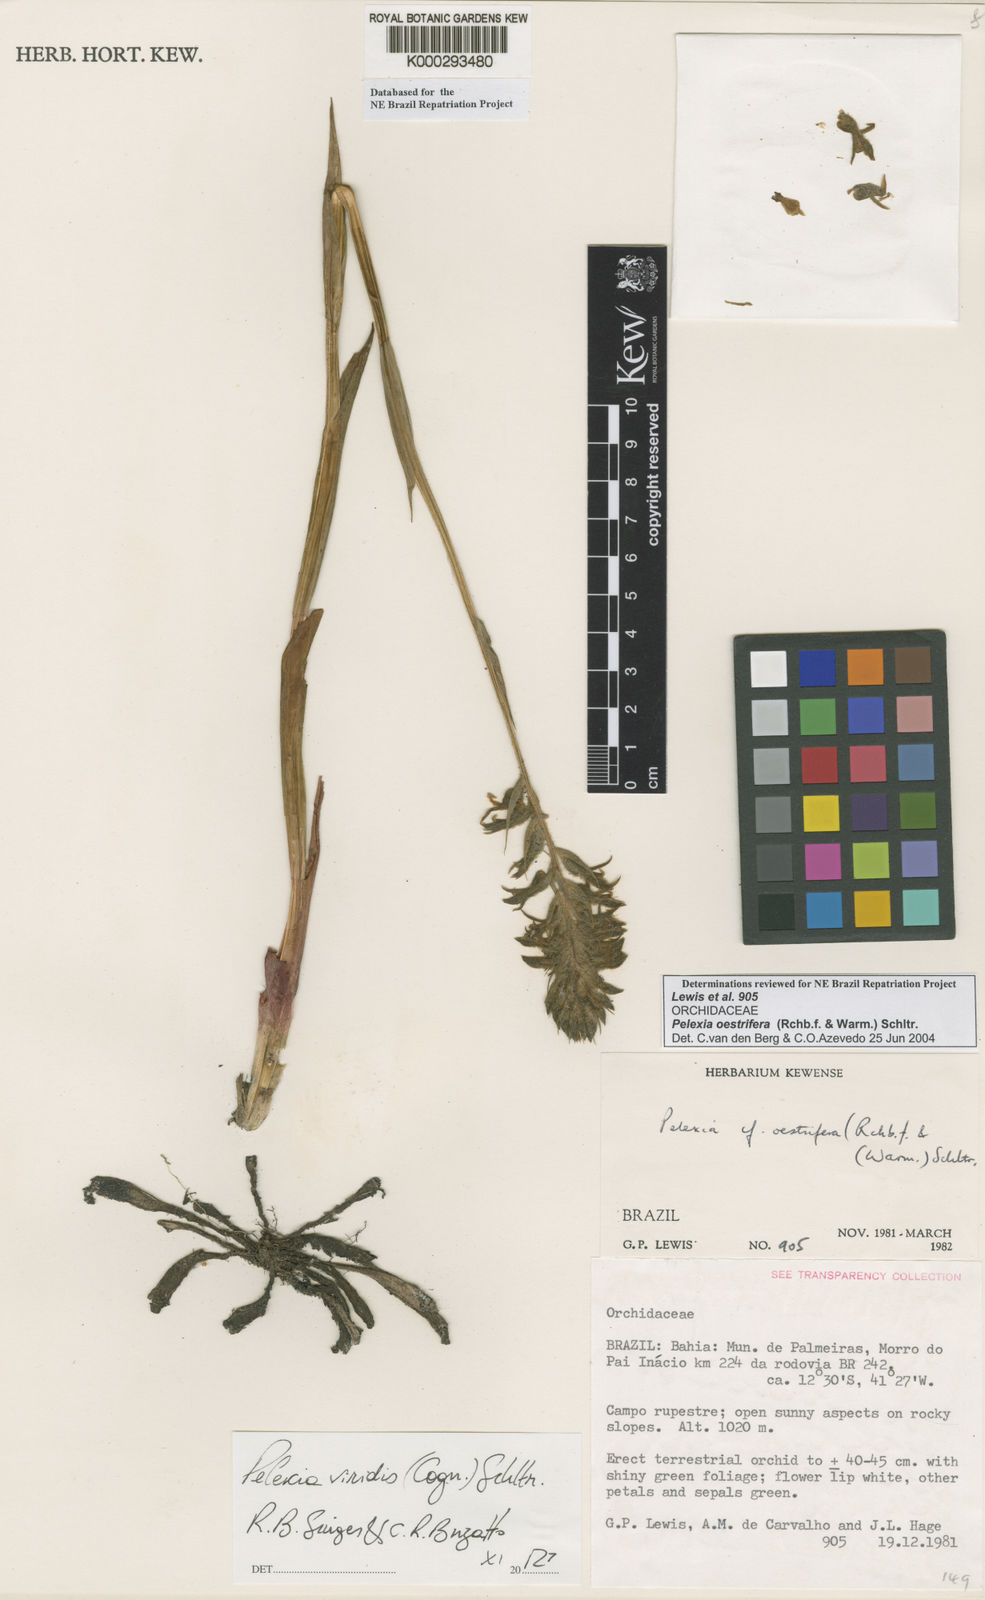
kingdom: Plantae
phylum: Tracheophyta
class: Liliopsida
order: Asparagales
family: Orchidaceae
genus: Pelexia
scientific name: Pelexia oestrifera
